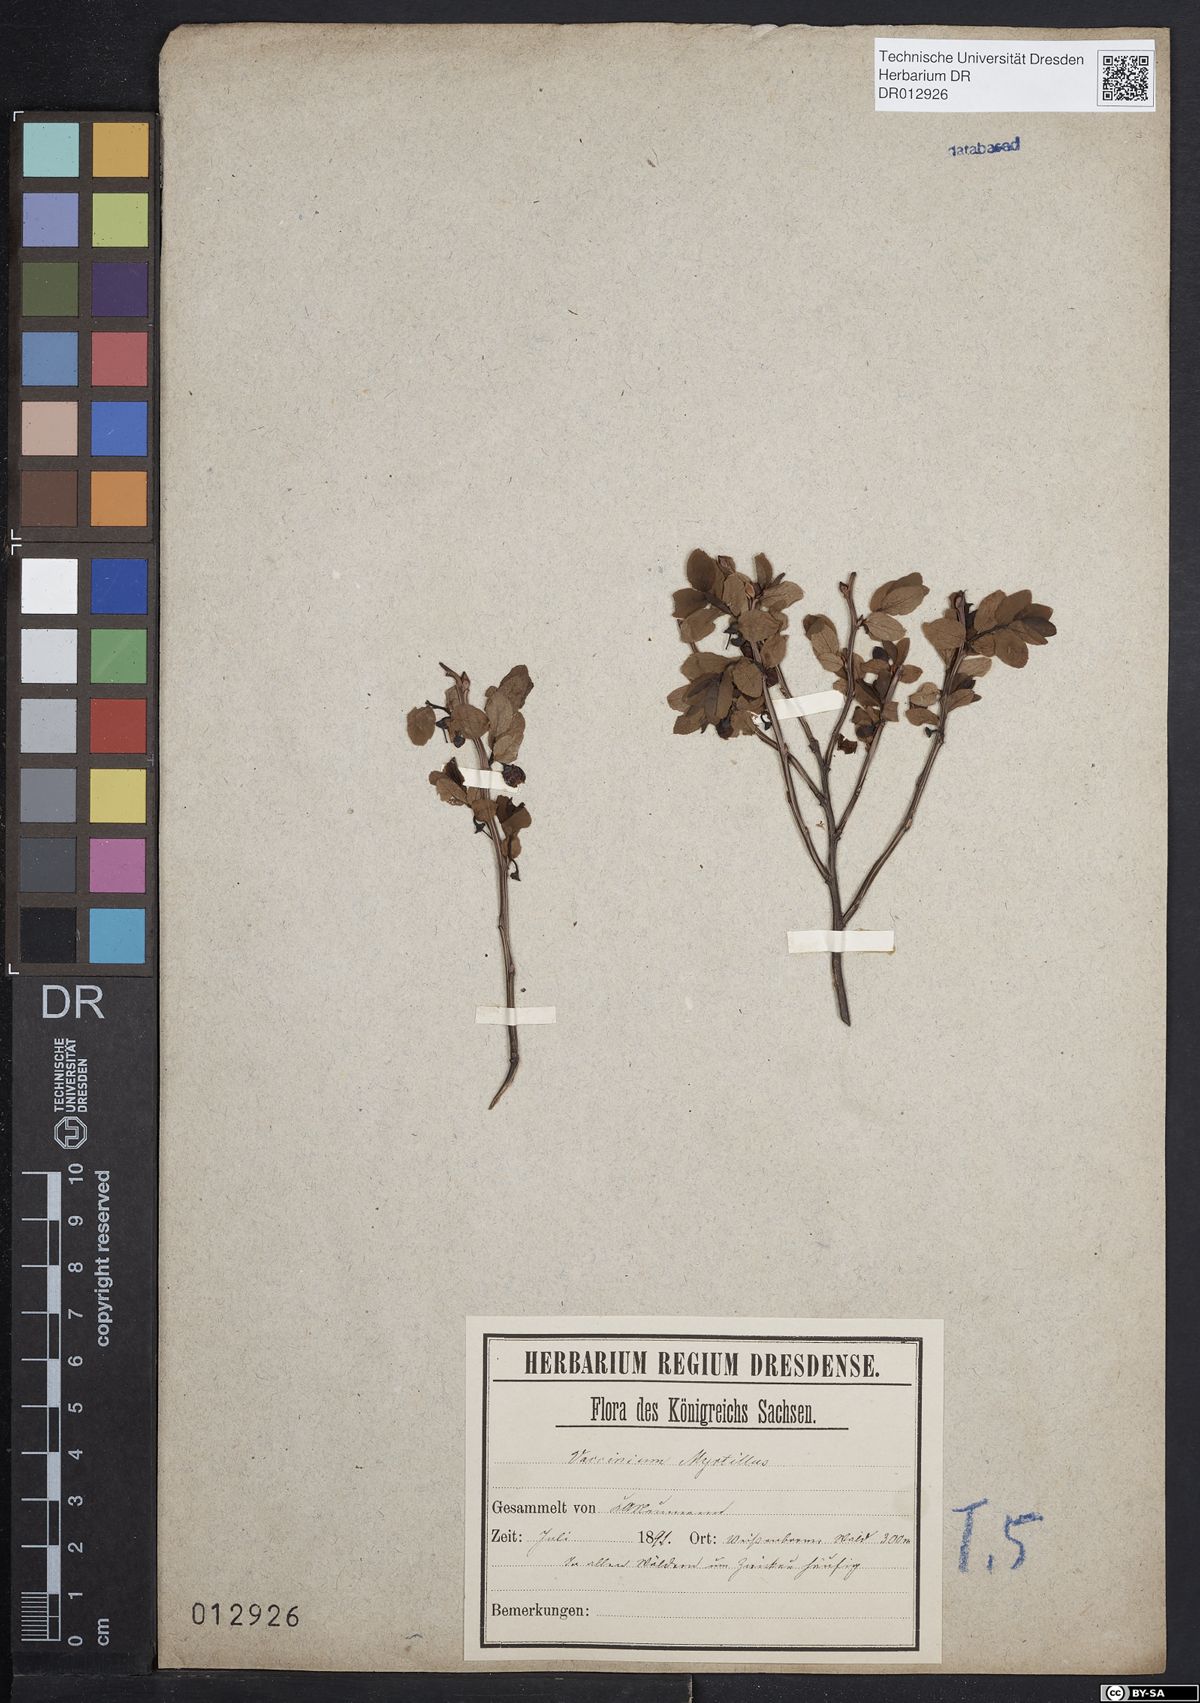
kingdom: Plantae
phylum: Tracheophyta
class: Magnoliopsida
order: Ericales
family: Ericaceae
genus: Vaccinium
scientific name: Vaccinium myrtillus
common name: Bilberry
